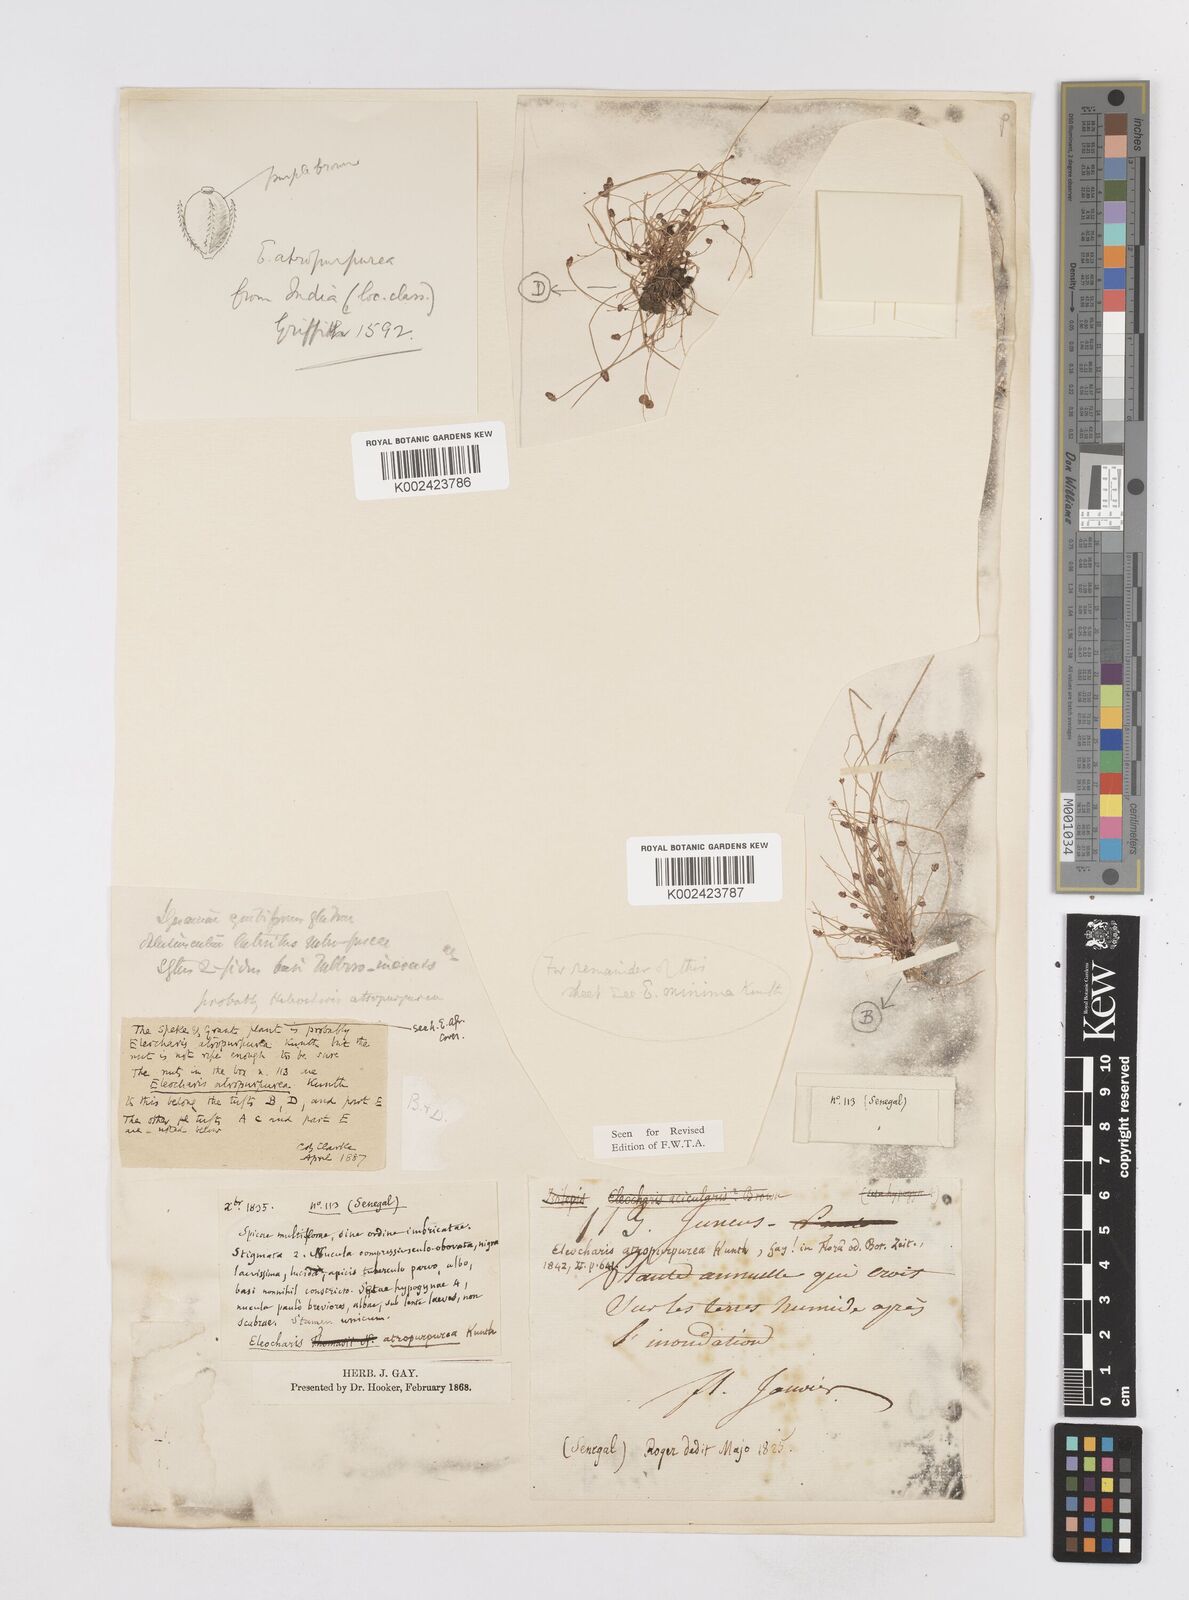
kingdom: Plantae
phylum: Tracheophyta
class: Liliopsida
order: Poales
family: Cyperaceae
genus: Eleocharis
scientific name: Eleocharis atropurpurea
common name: Purple spikerush
